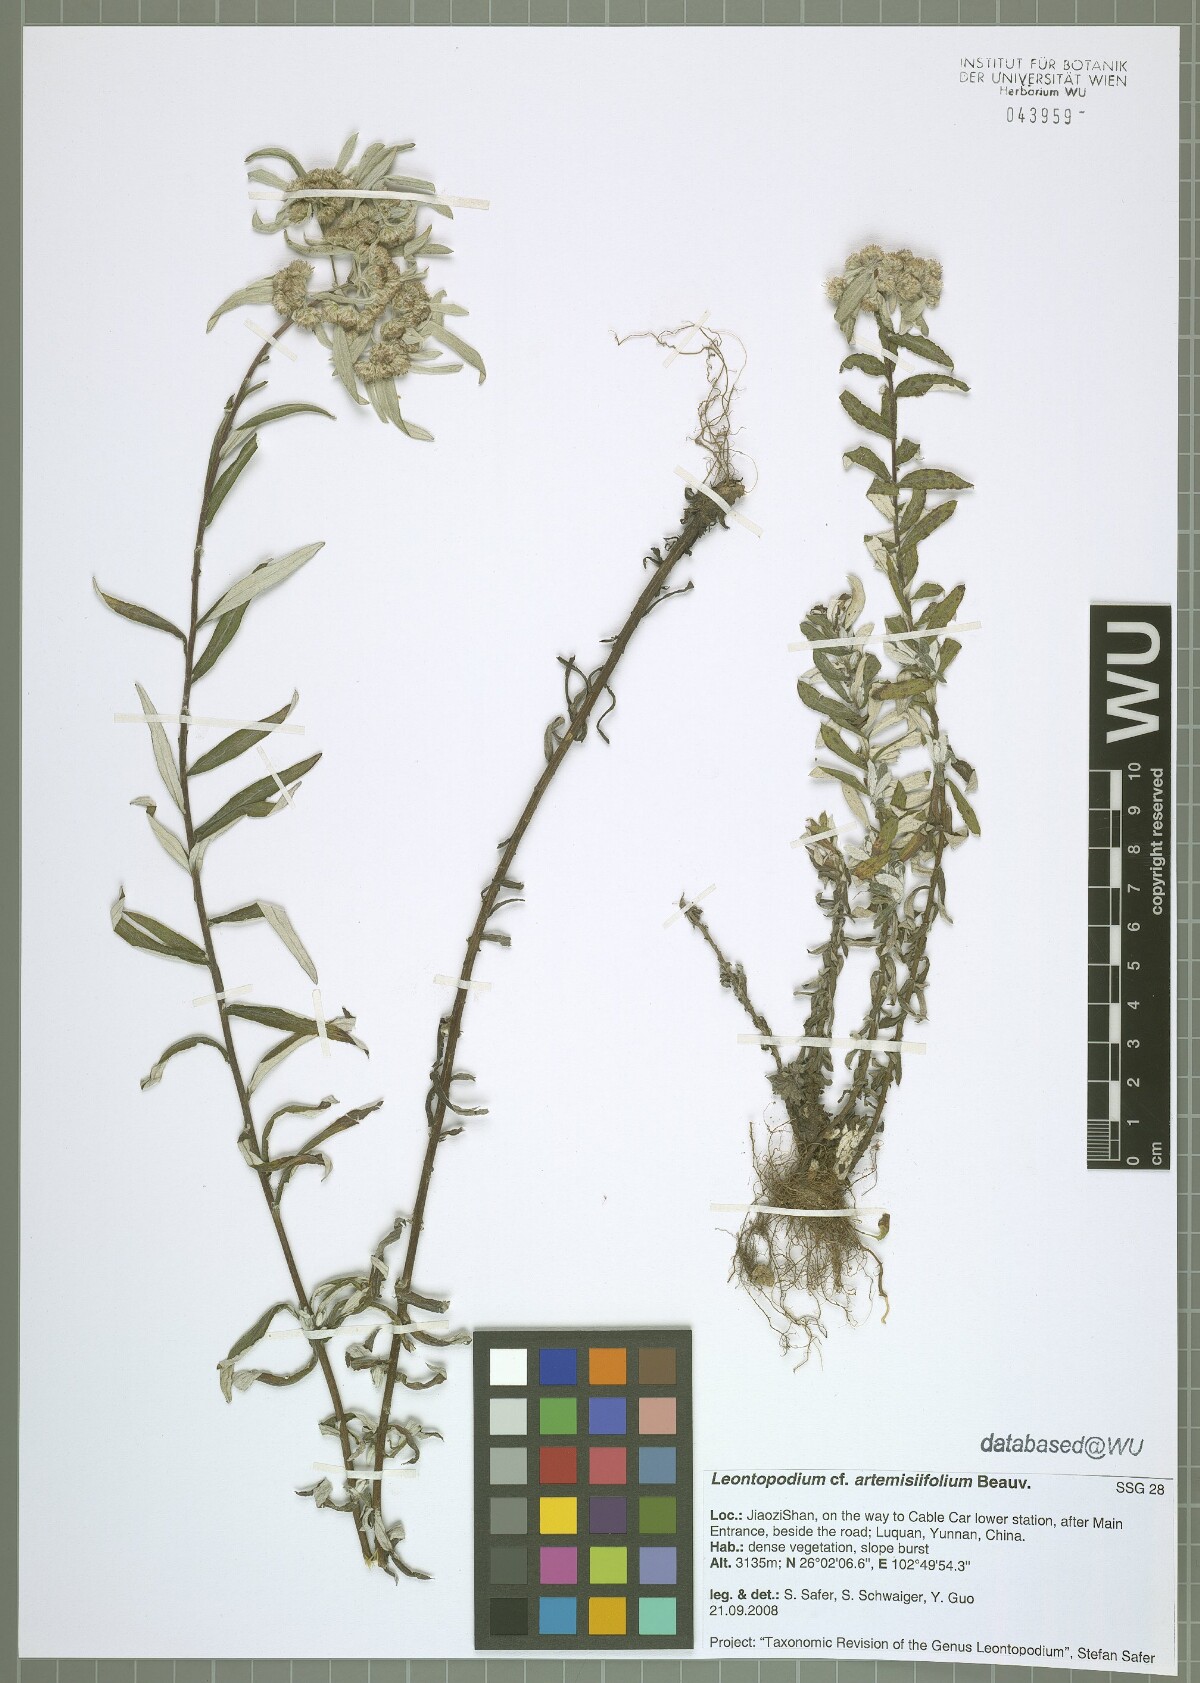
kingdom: Plantae
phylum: Tracheophyta
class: Magnoliopsida
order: Asterales
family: Asteraceae
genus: Leontopodium
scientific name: Leontopodium artemisiifolium
